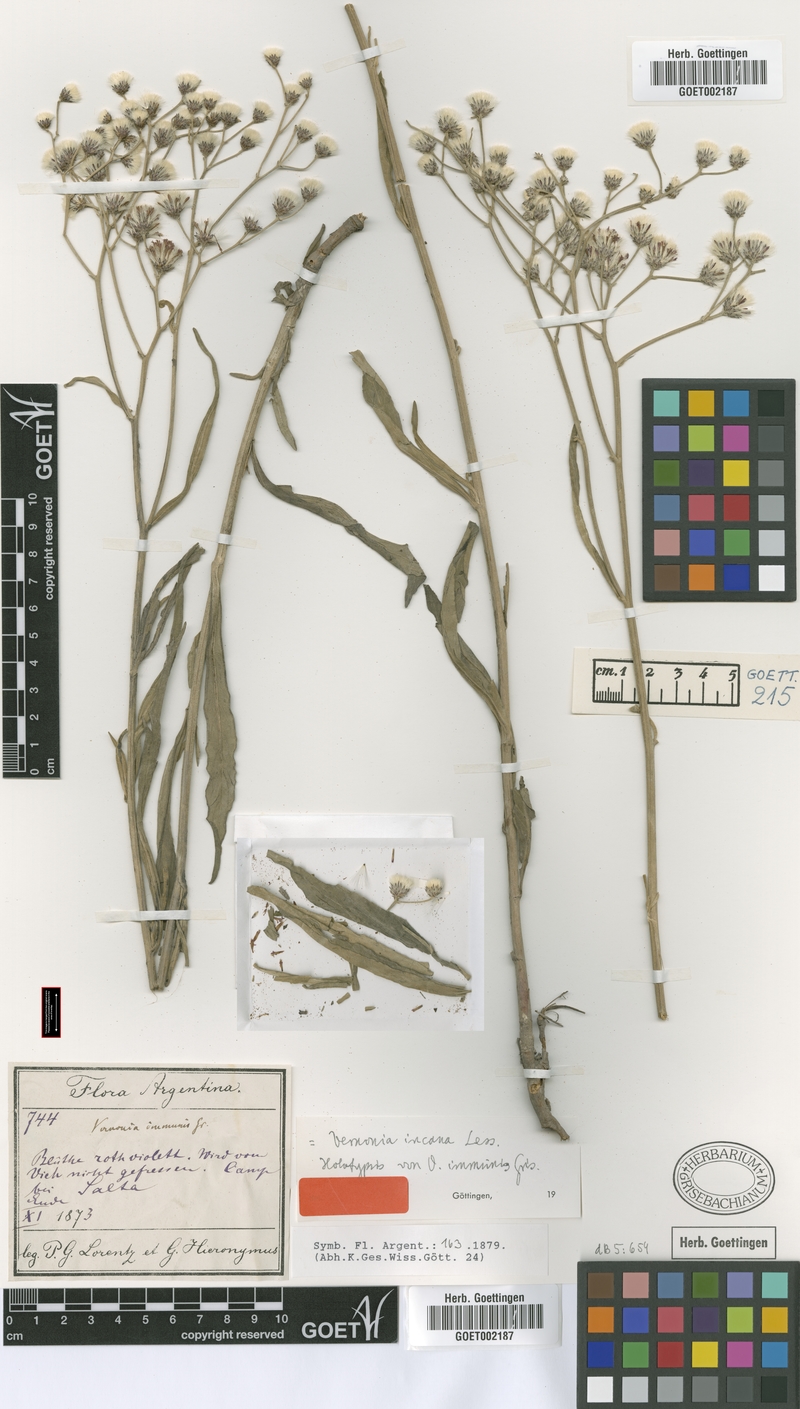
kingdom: Plantae
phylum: Tracheophyta
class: Magnoliopsida
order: Asterales
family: Asteraceae
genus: Vernonia
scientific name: Vernonia incana
